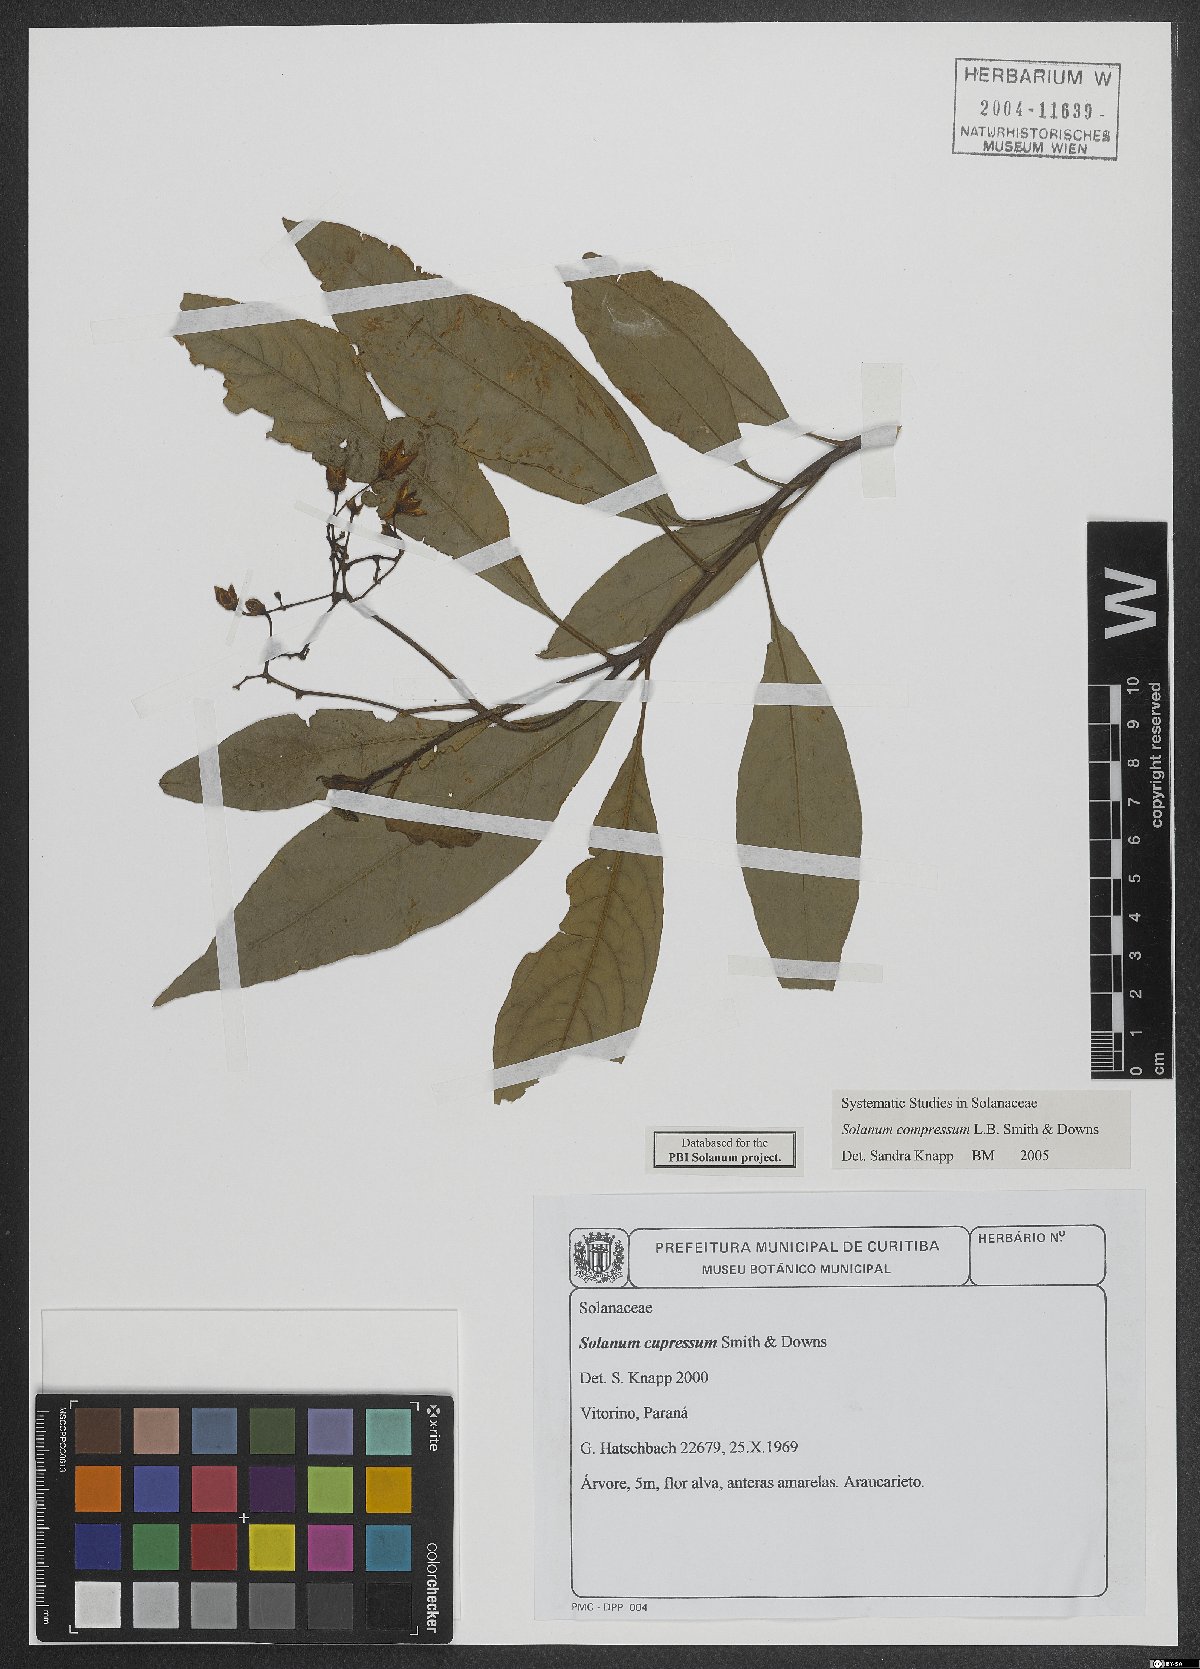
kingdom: Plantae
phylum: Tracheophyta
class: Magnoliopsida
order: Solanales
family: Solanaceae
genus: Solanum
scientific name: Solanum compressum
